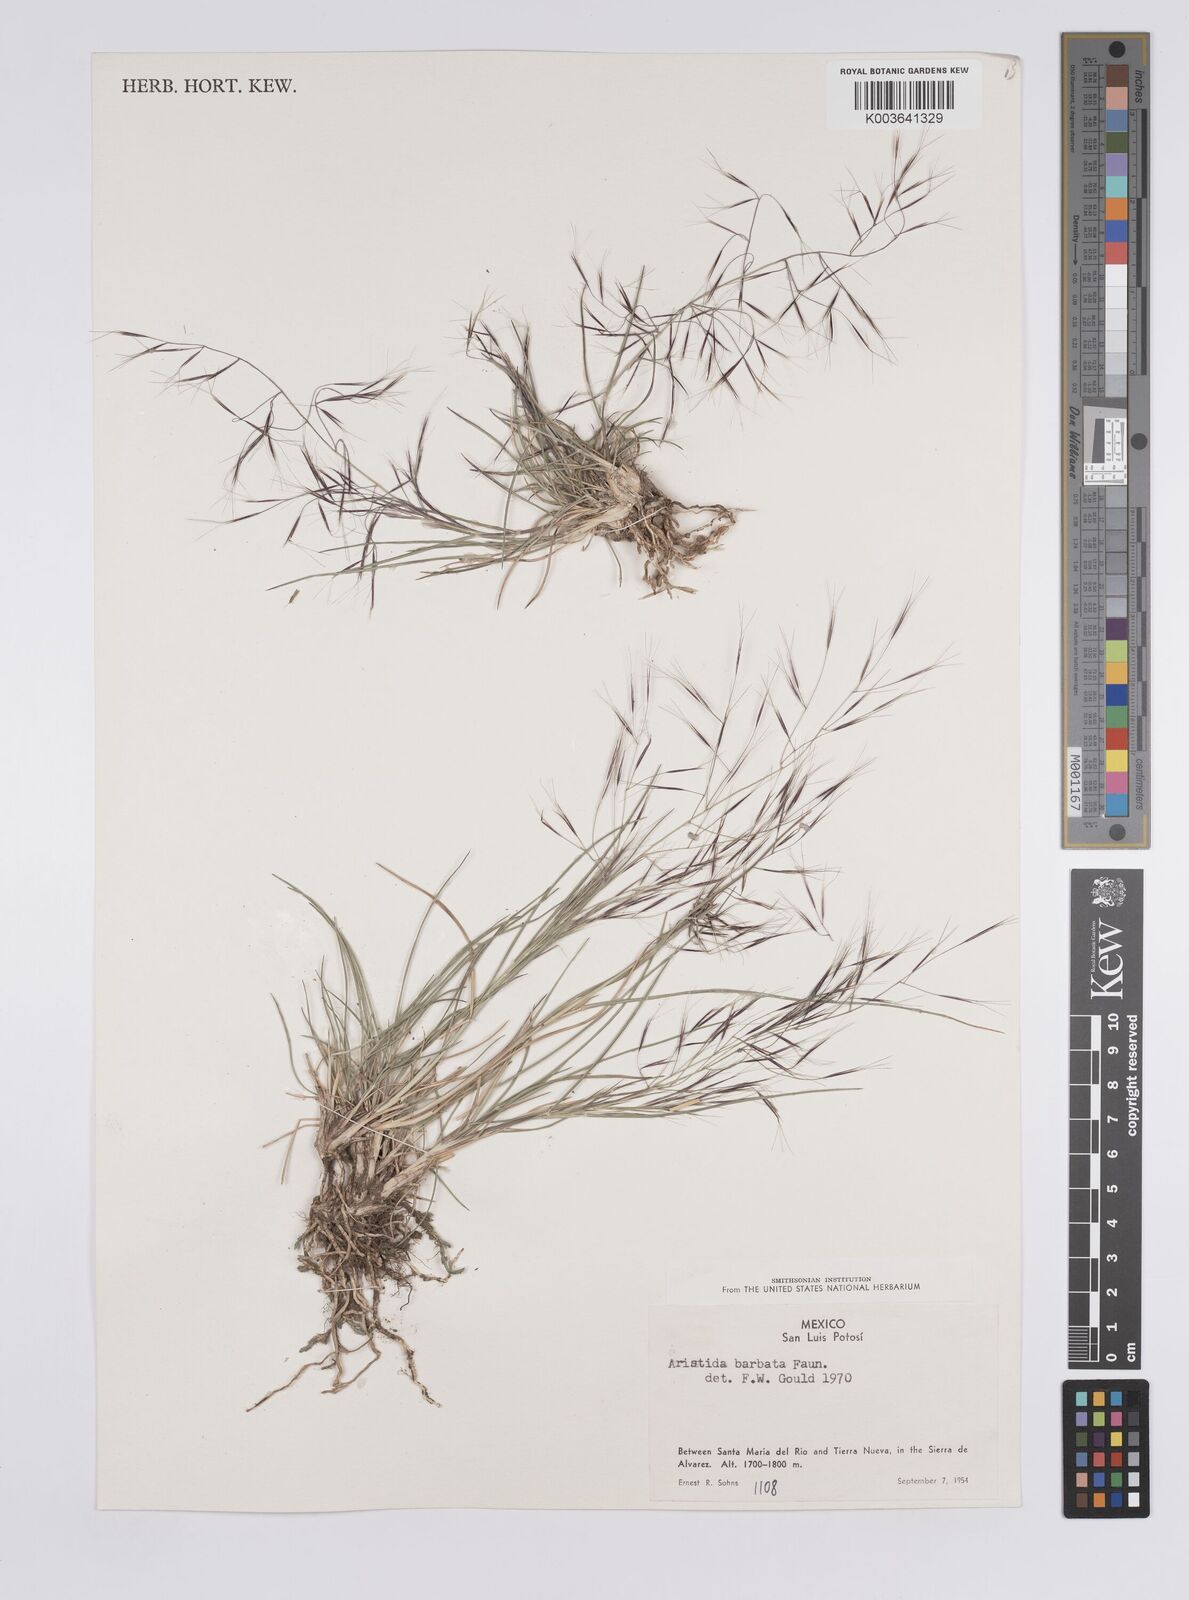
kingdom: Plantae
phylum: Tracheophyta
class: Liliopsida
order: Poales
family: Poaceae
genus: Aristida
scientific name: Aristida havardii
